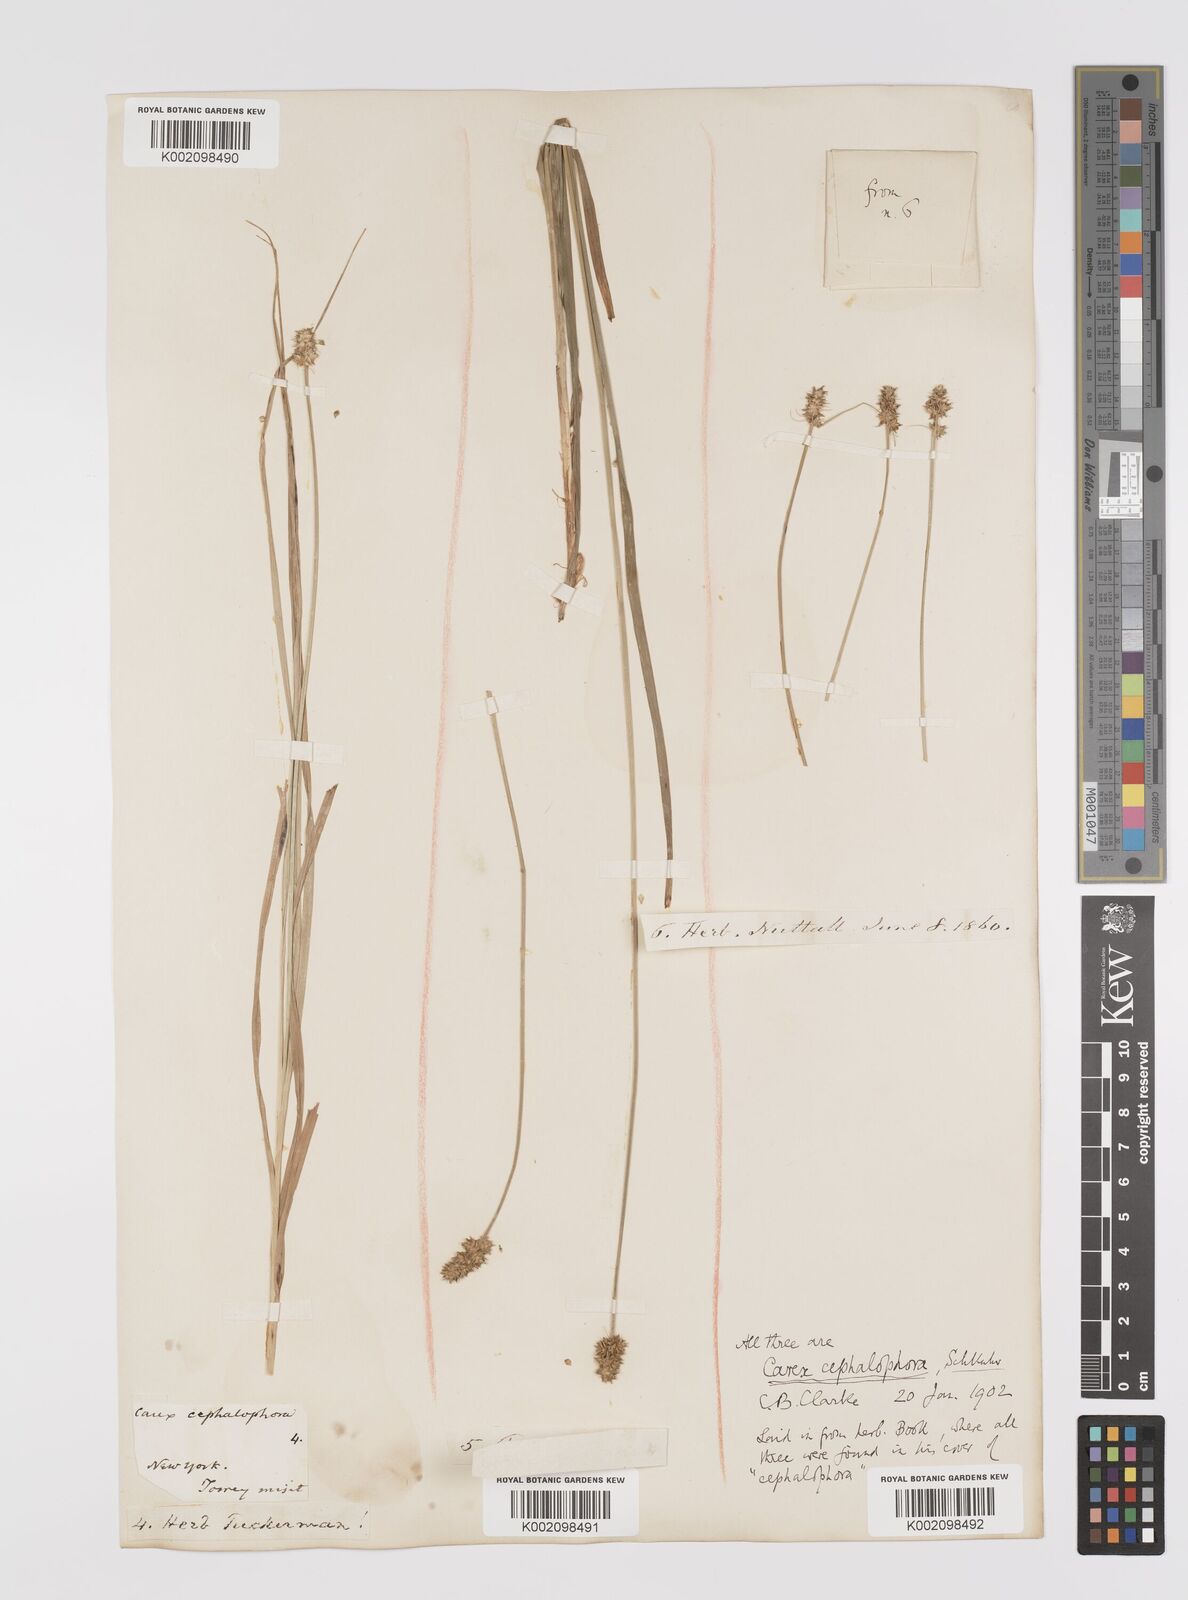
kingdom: Plantae
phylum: Tracheophyta
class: Liliopsida
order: Poales
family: Cyperaceae
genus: Carex
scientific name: Carex cephalophora
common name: Oval-headed sedge
